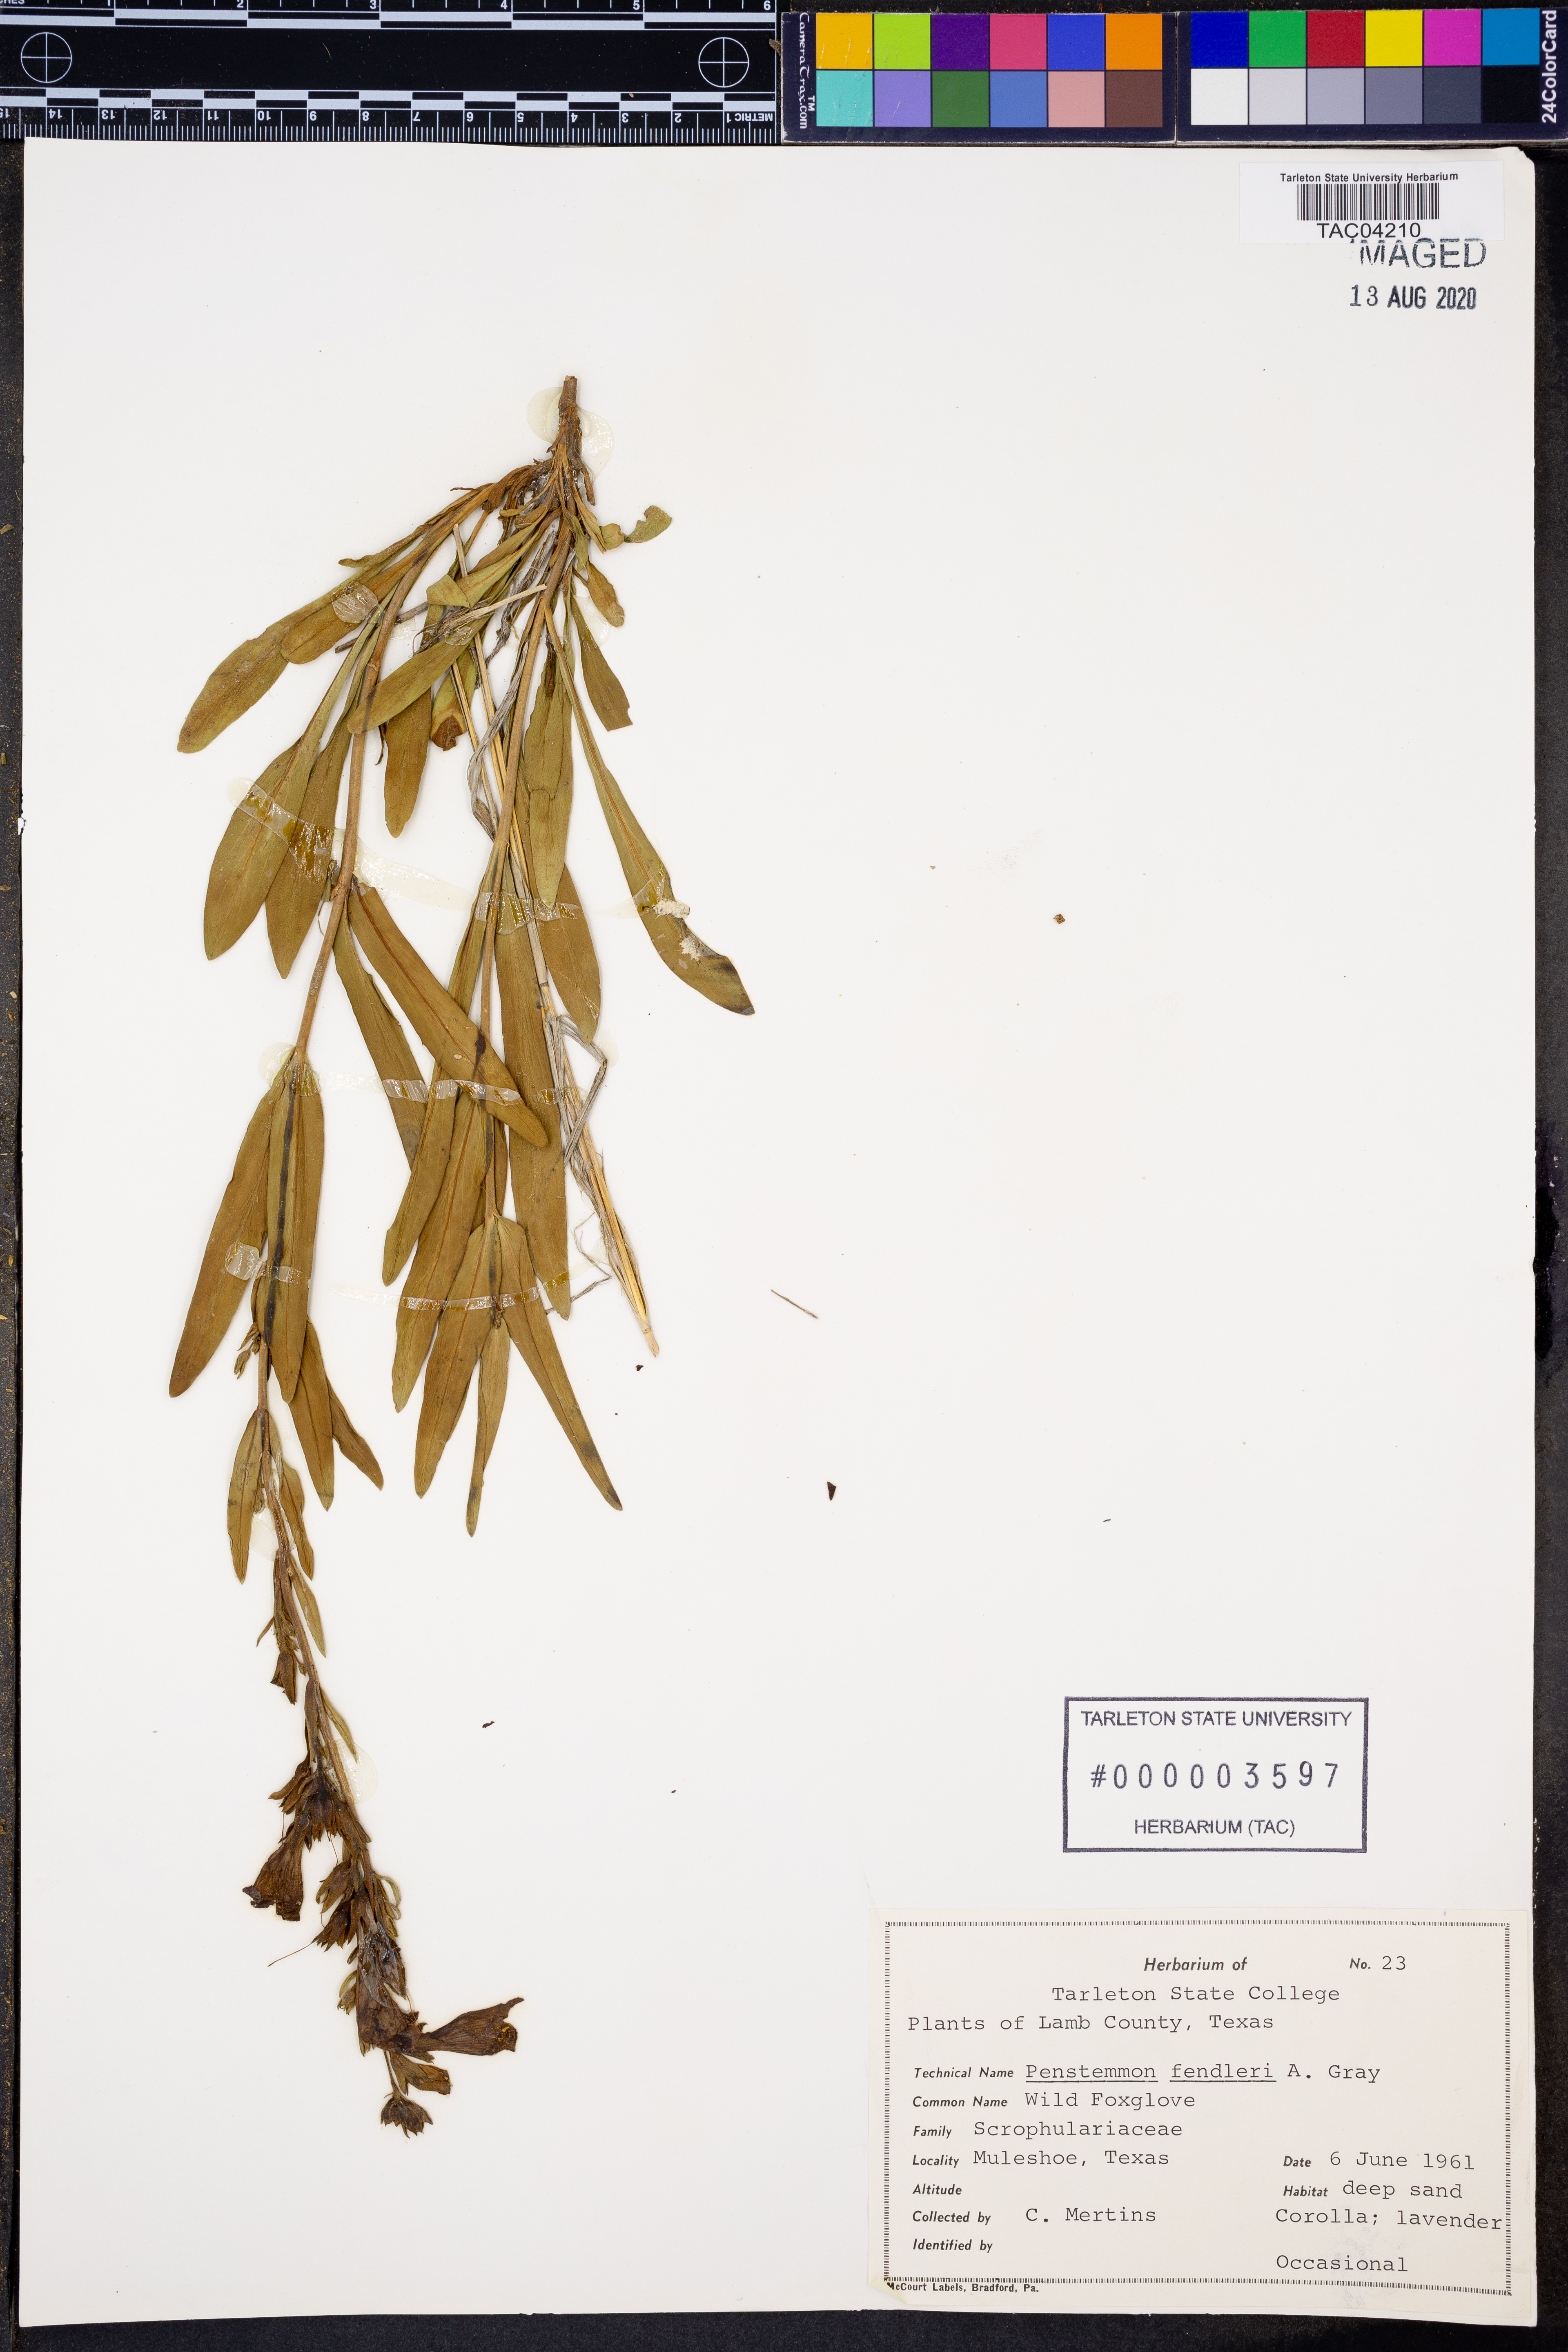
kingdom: Plantae
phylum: Tracheophyta
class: Magnoliopsida
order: Lamiales
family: Plantaginaceae
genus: Penstemon
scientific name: Penstemon fendleri
